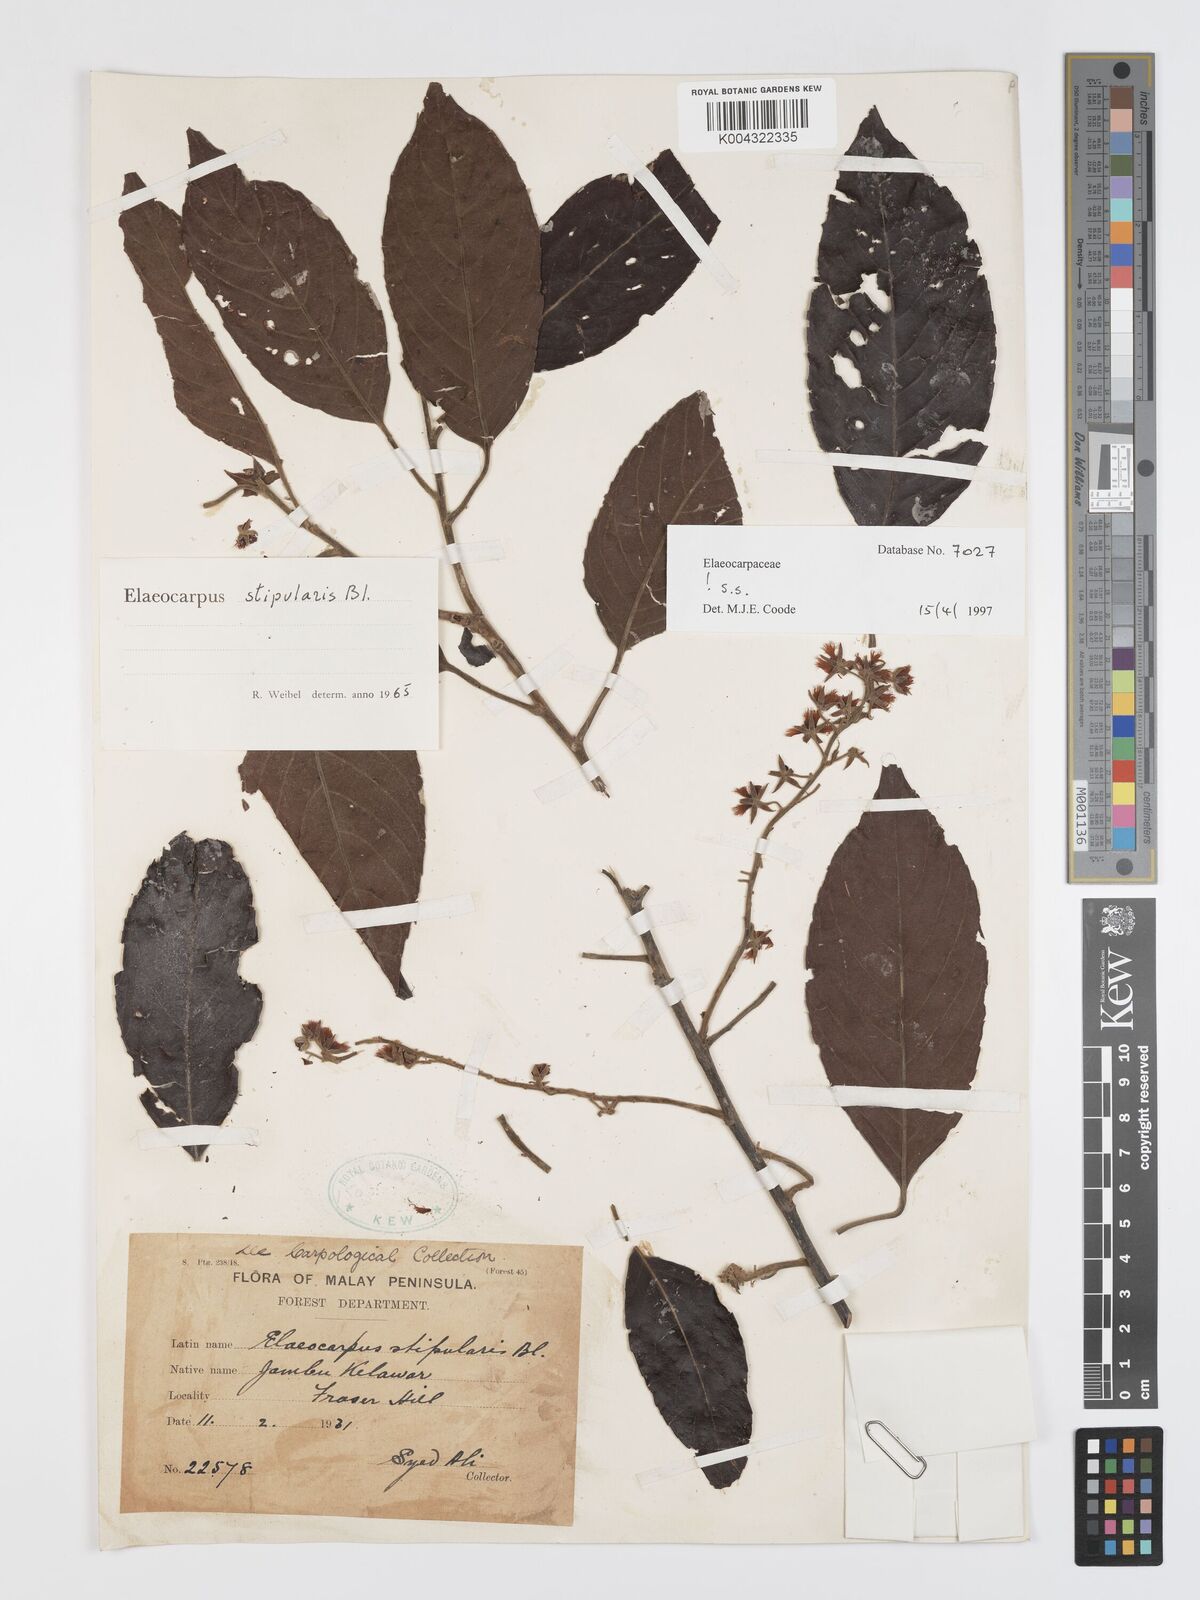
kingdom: Plantae
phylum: Tracheophyta
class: Magnoliopsida
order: Oxalidales
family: Elaeocarpaceae
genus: Elaeocarpus
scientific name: Elaeocarpus stipularis
